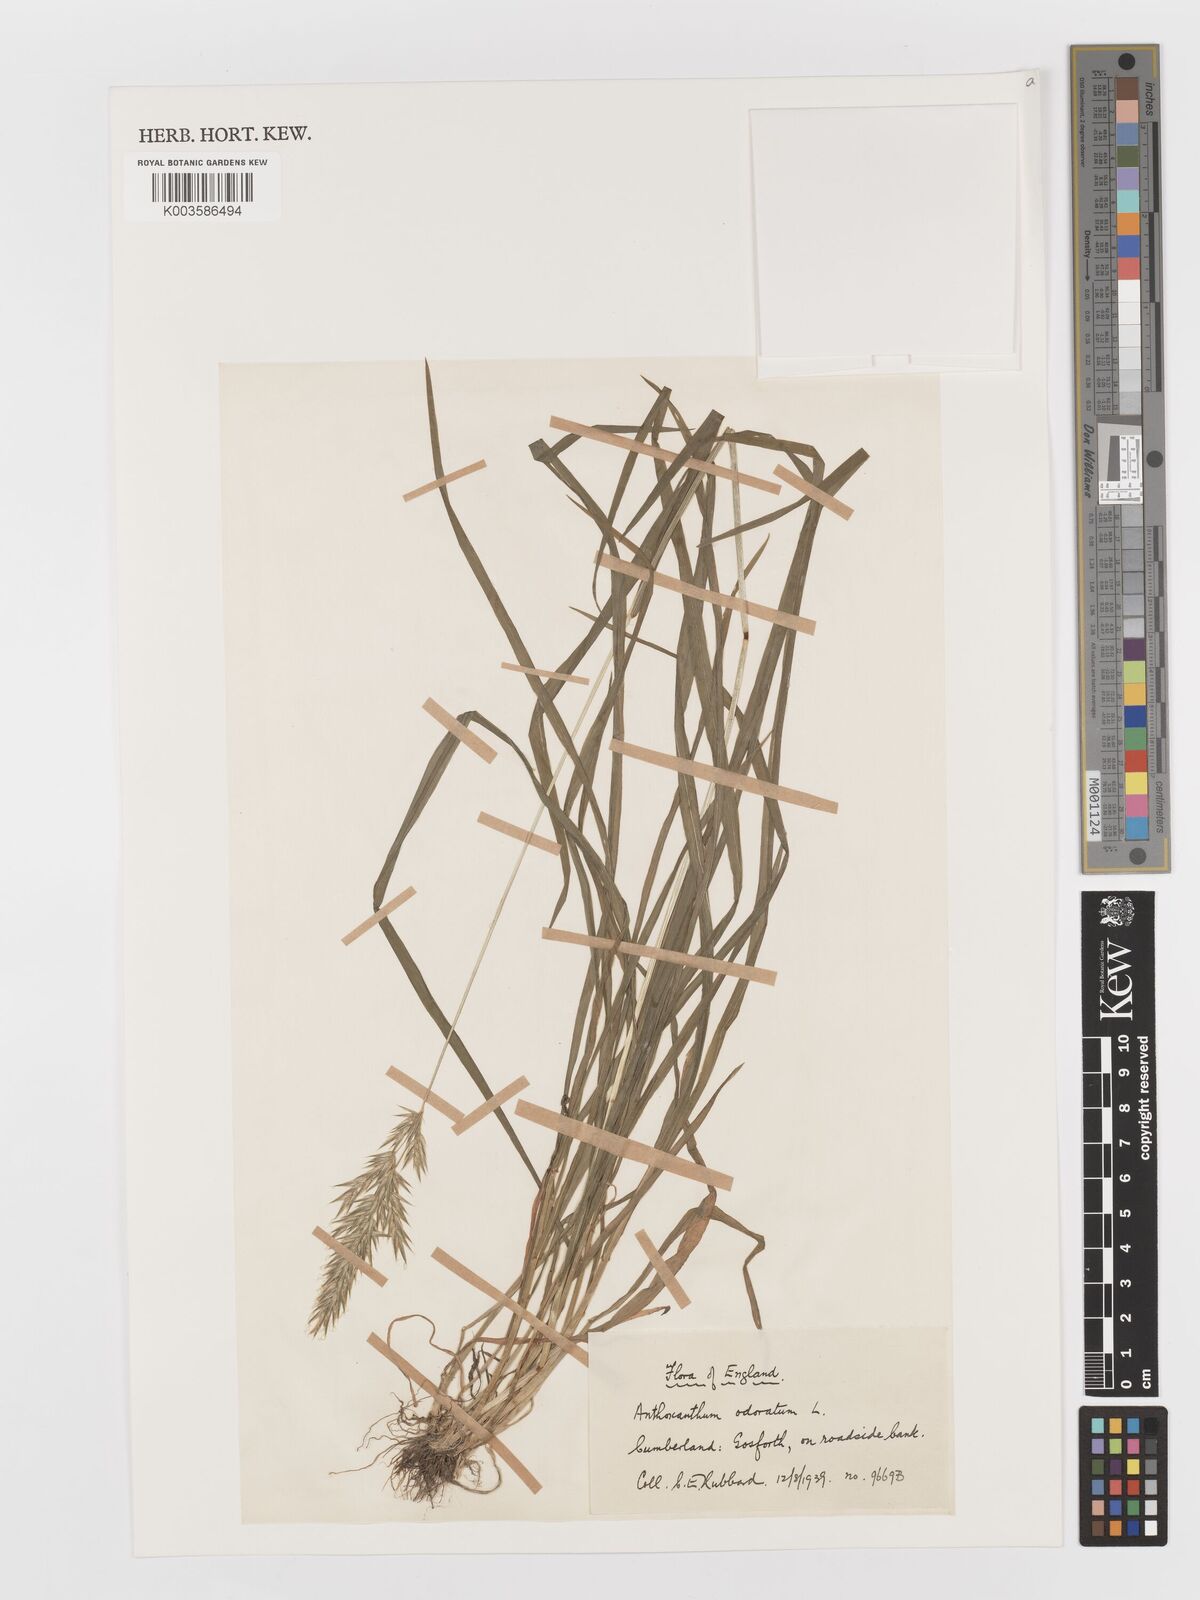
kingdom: Plantae
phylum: Tracheophyta
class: Liliopsida
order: Poales
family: Poaceae
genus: Anthoxanthum
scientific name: Anthoxanthum odoratum
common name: Sweet vernalgrass
